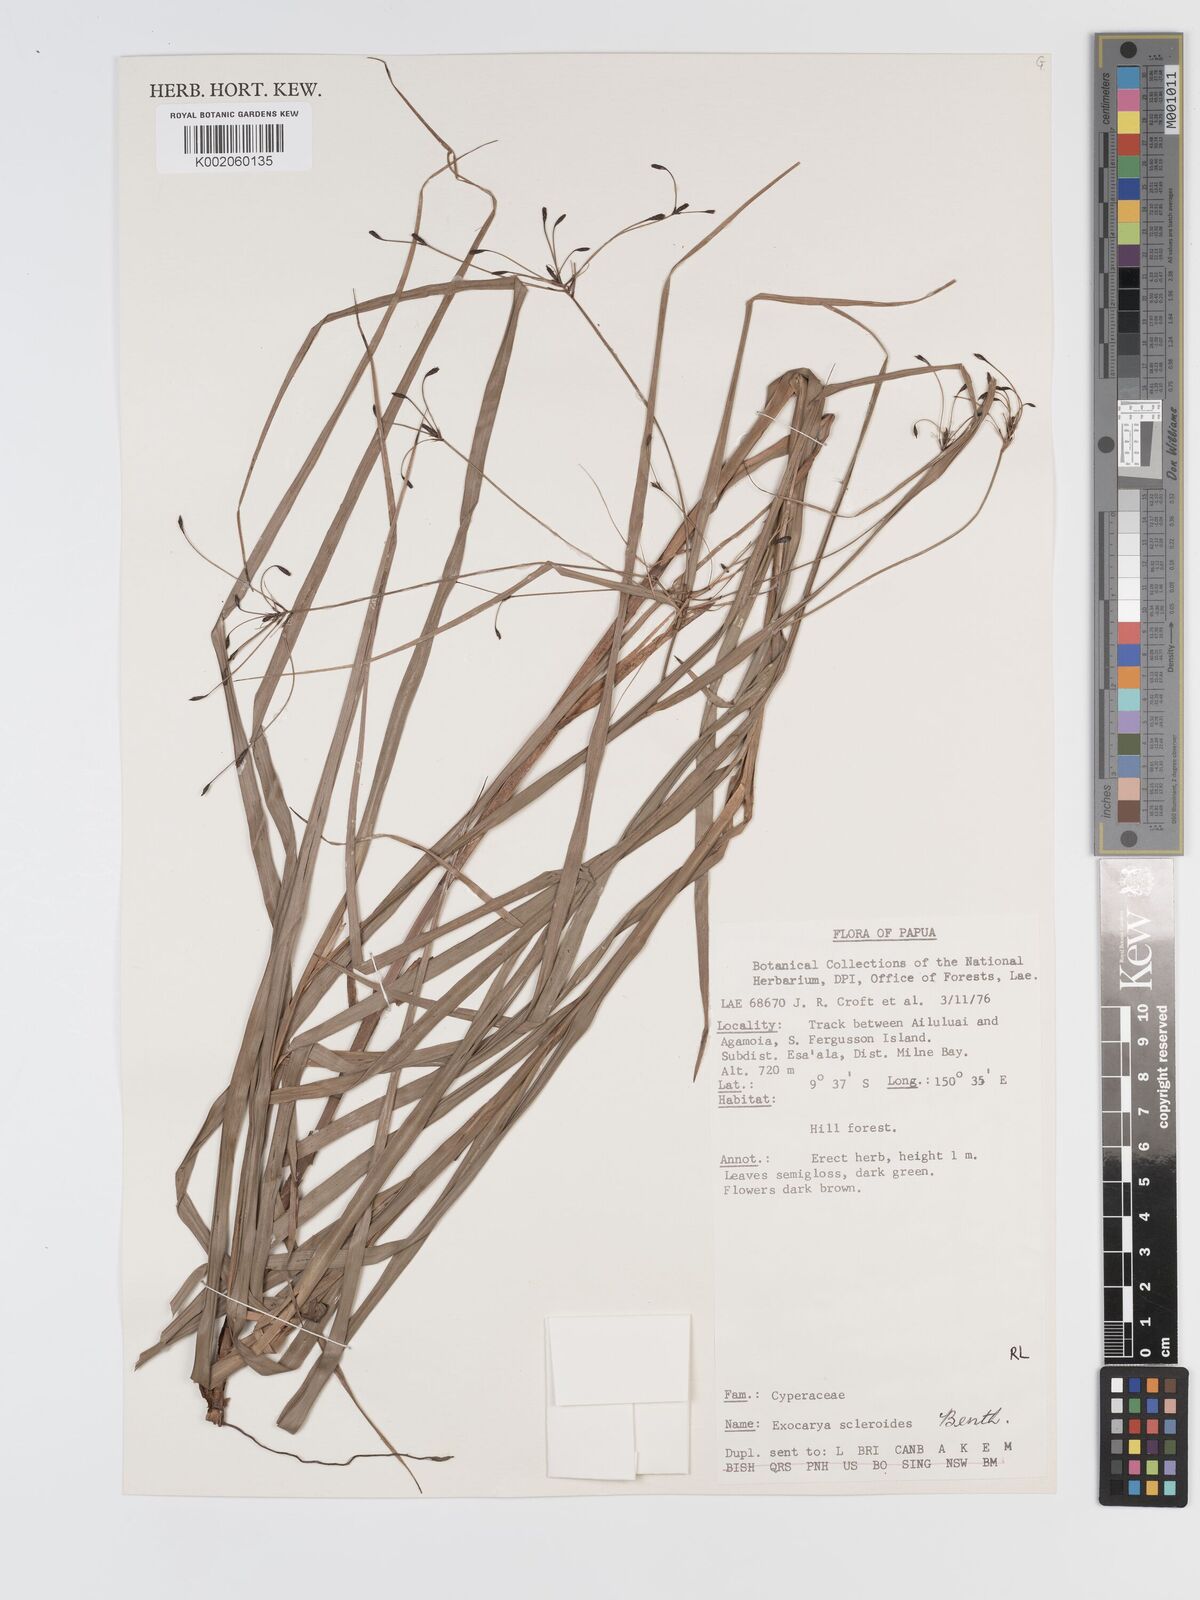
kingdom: Plantae
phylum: Tracheophyta
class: Liliopsida
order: Poales
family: Cyperaceae
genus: Exocarya
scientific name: Exocarya sclerioides
